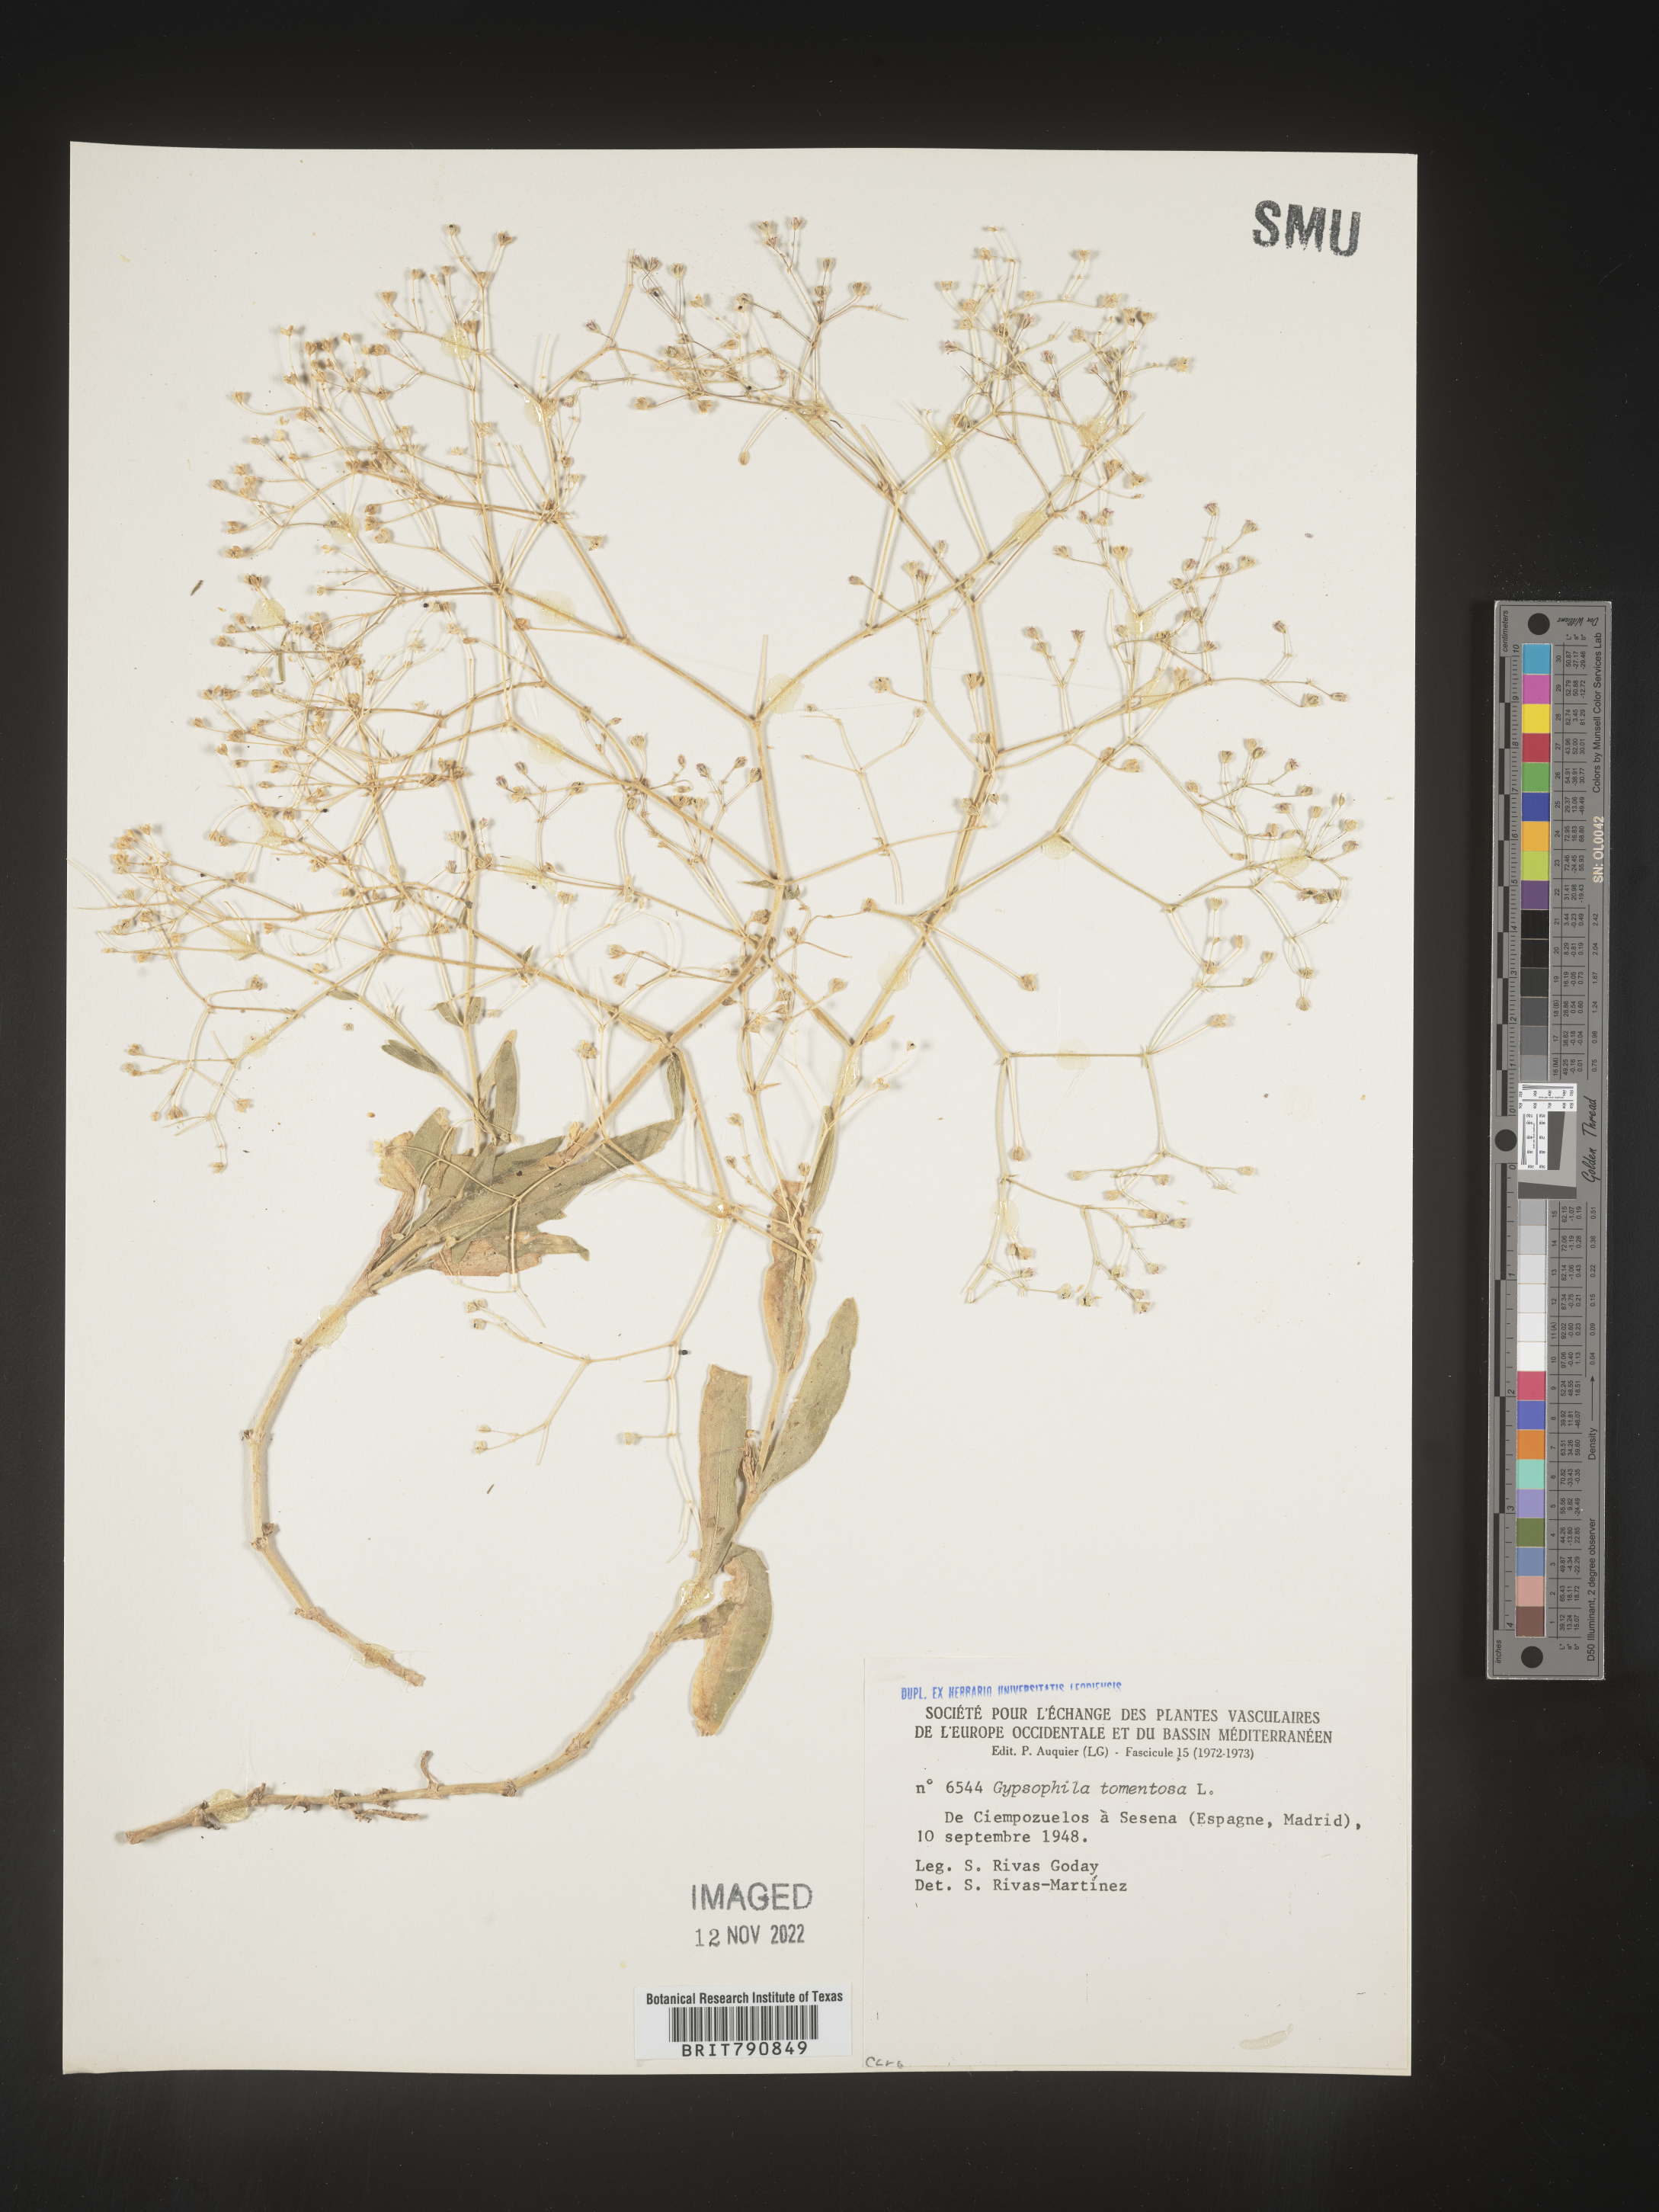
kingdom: Plantae
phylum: Tracheophyta
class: Magnoliopsida
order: Caryophyllales
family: Caryophyllaceae
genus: Gypsophila
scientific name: Gypsophila
